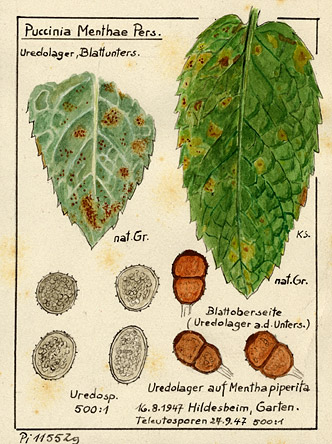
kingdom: Fungi
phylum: Basidiomycota
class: Pucciniomycetes
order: Pucciniales
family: Pucciniaceae
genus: Puccinia
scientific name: Puccinia menthae
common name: Mint rust
